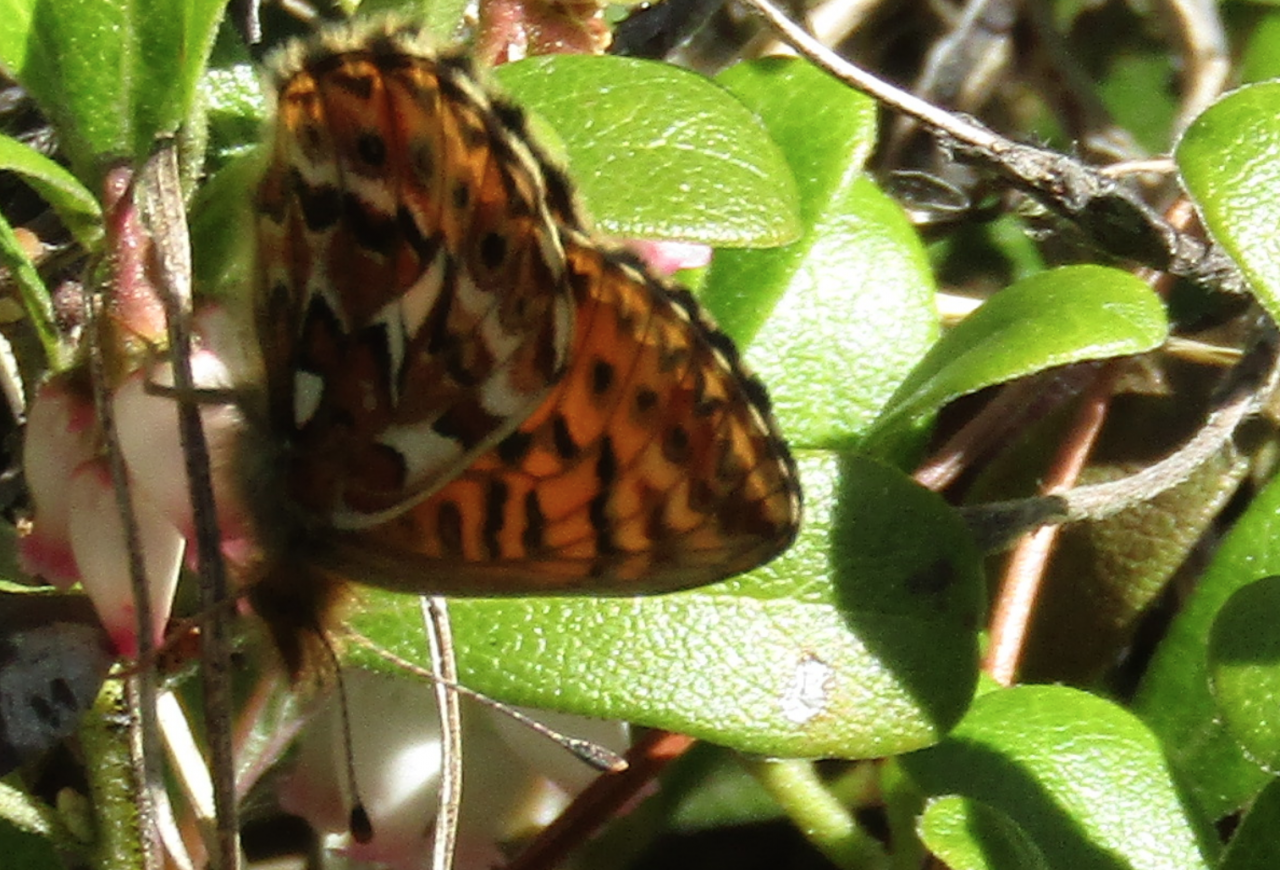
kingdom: Animalia
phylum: Arthropoda
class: Insecta
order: Lepidoptera
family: Nymphalidae
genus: Boloria
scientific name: Boloria freija
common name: Freija Fritillary
